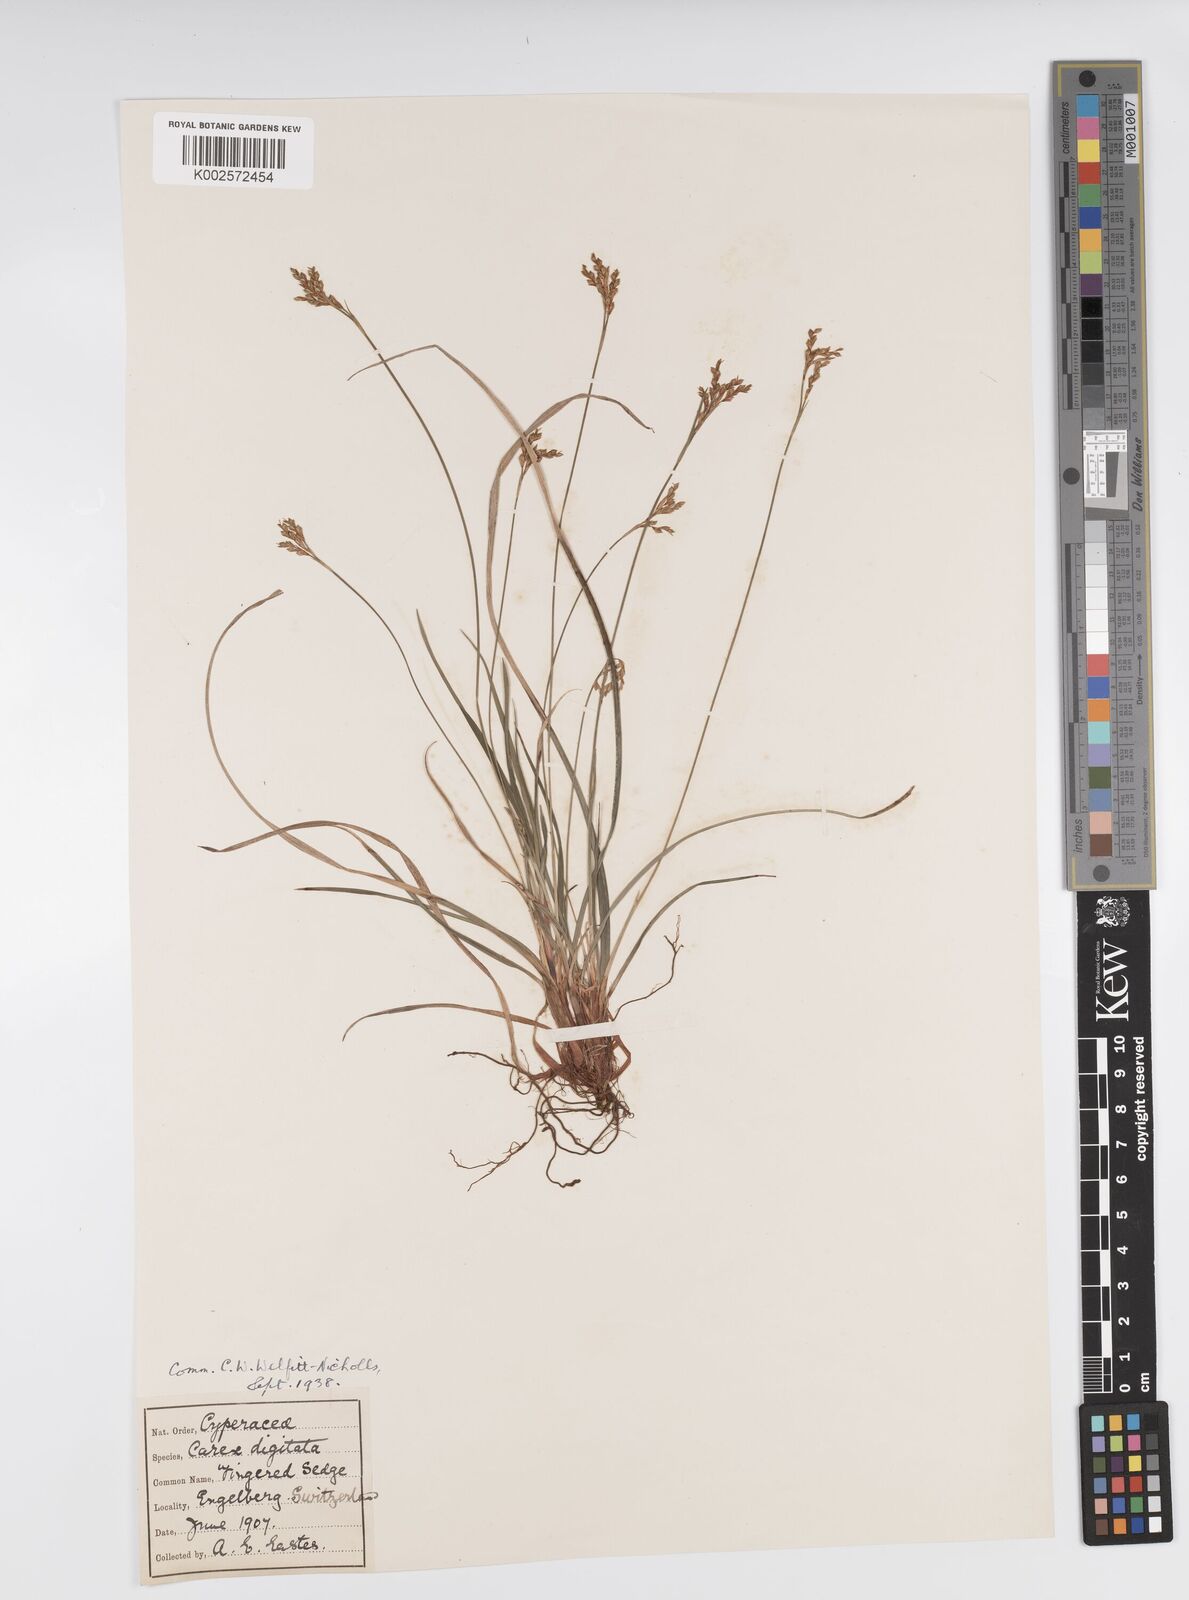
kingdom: Plantae
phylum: Tracheophyta
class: Liliopsida
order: Poales
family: Cyperaceae
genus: Carex
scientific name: Carex digitata
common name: Fingered sedge
